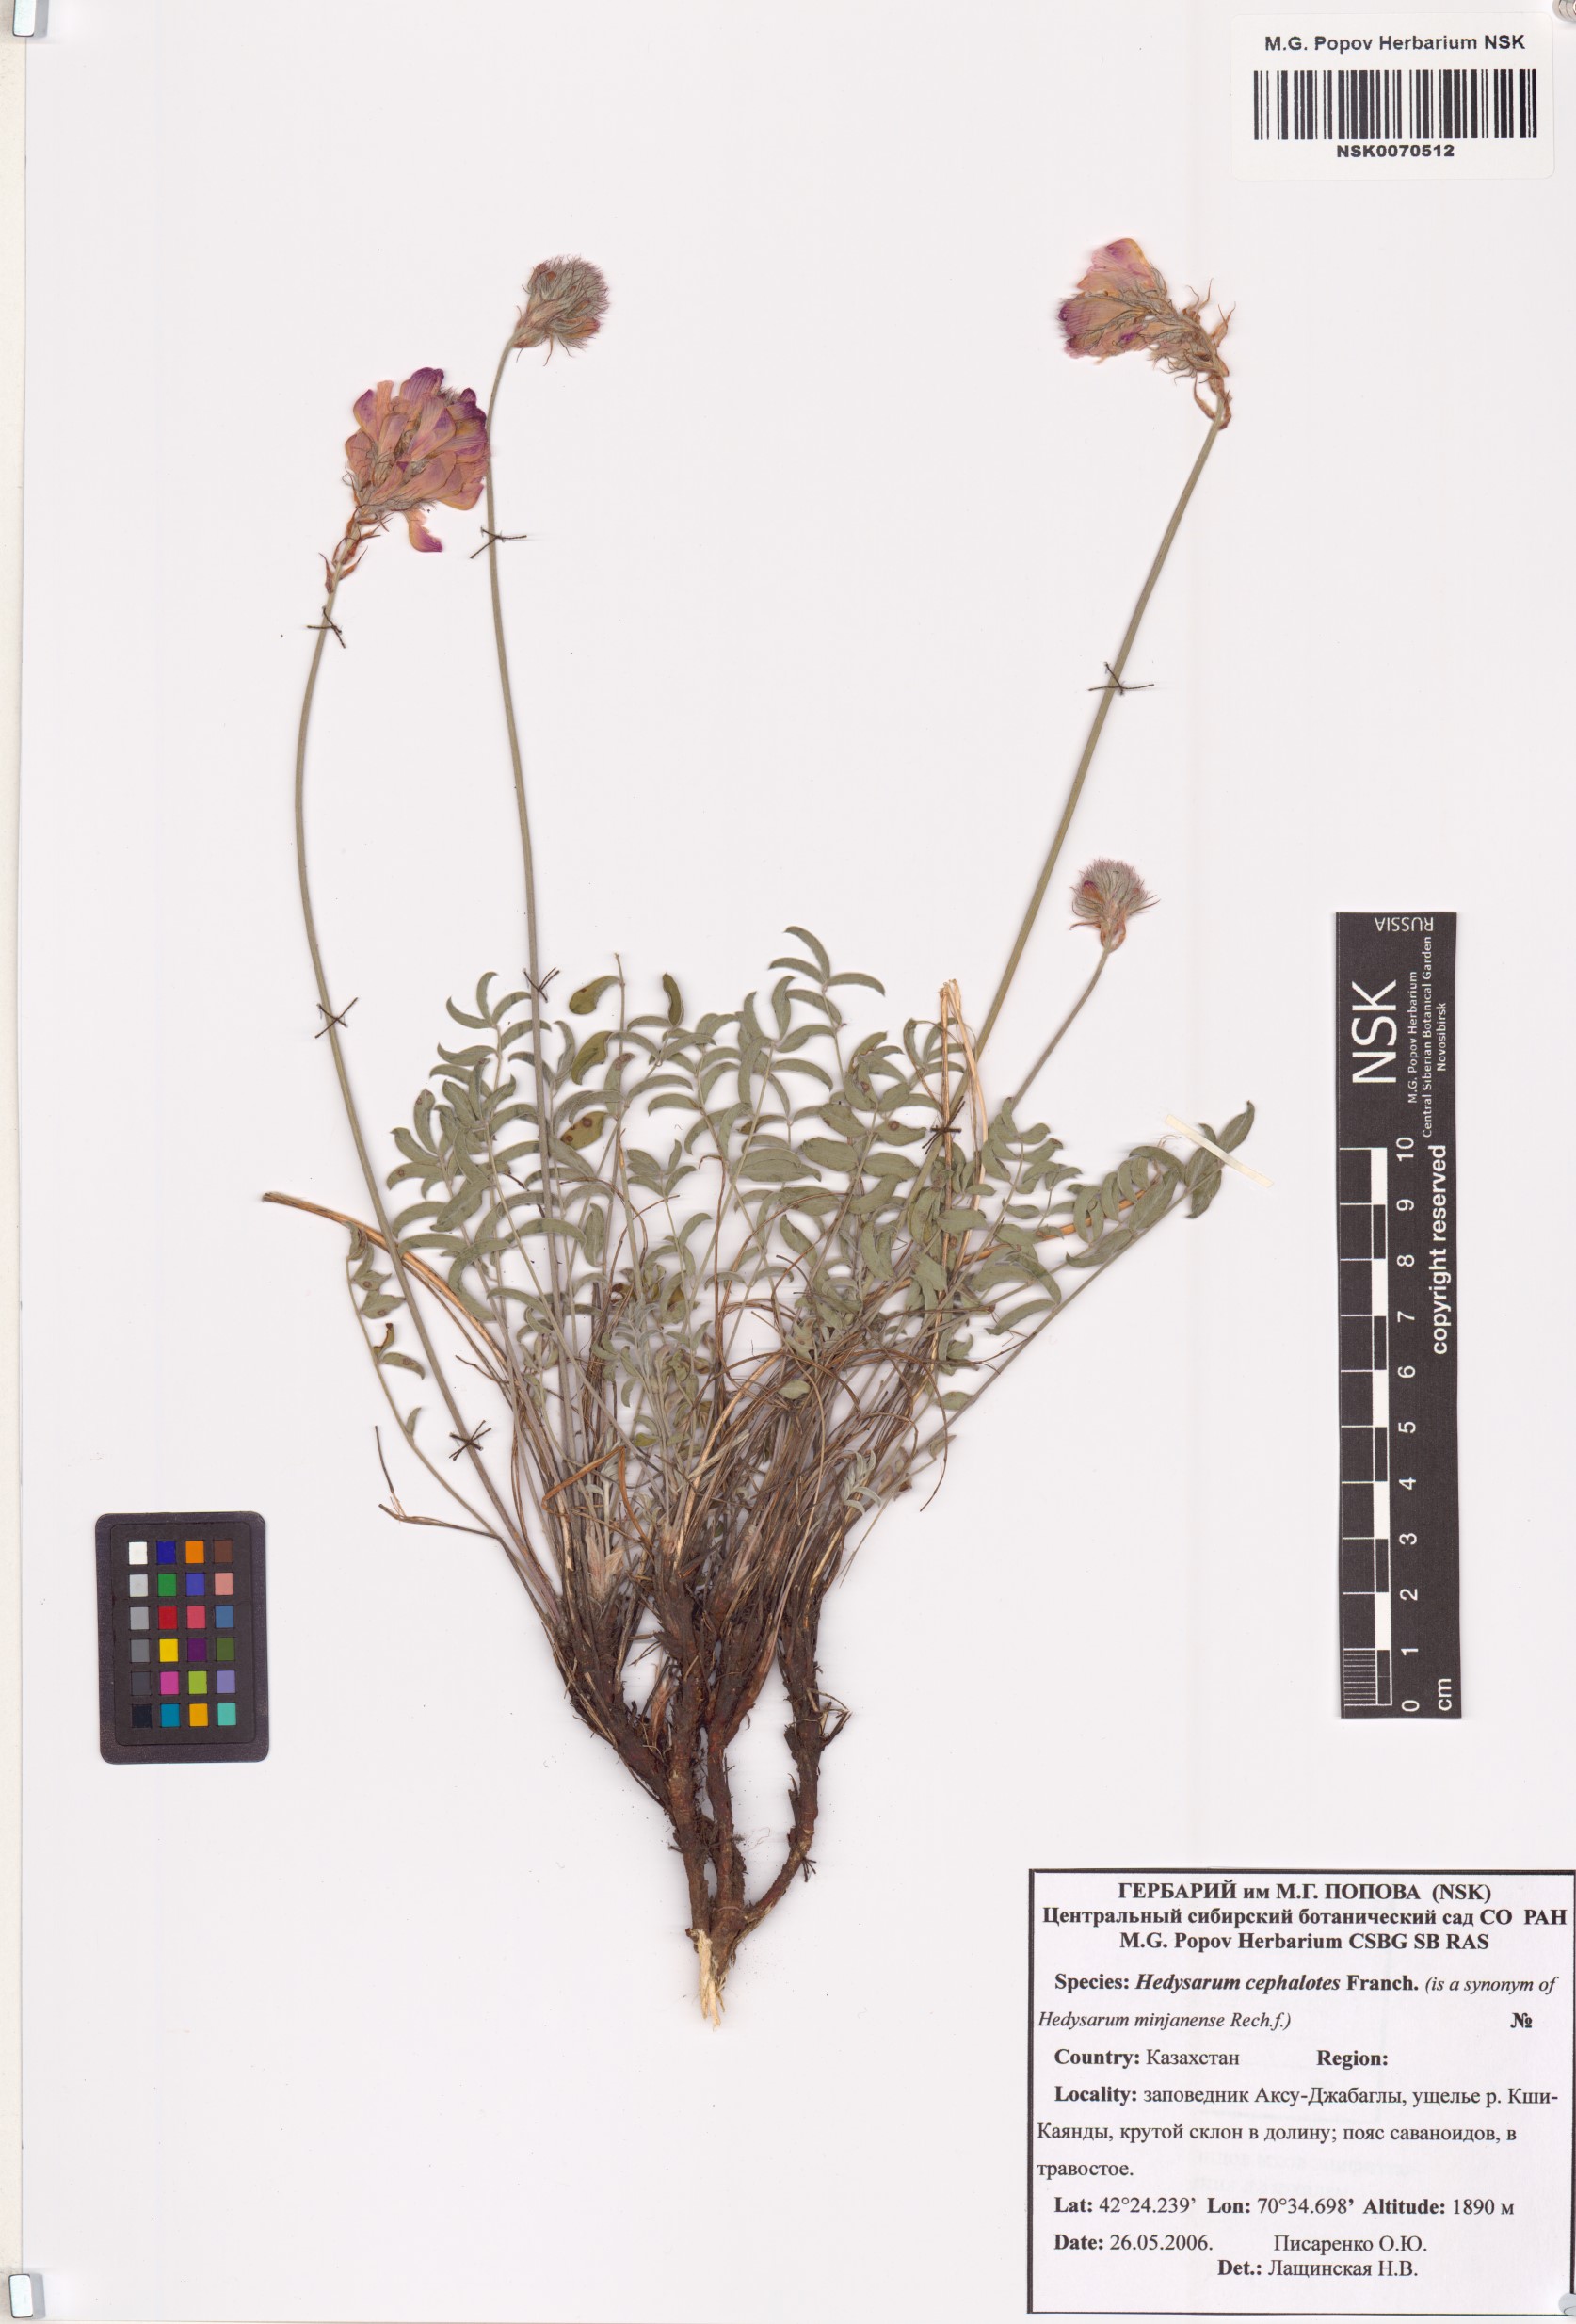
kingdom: Plantae
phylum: Tracheophyta
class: Magnoliopsida
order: Fabales
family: Fabaceae
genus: Hedysarum
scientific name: Hedysarum minjanense
